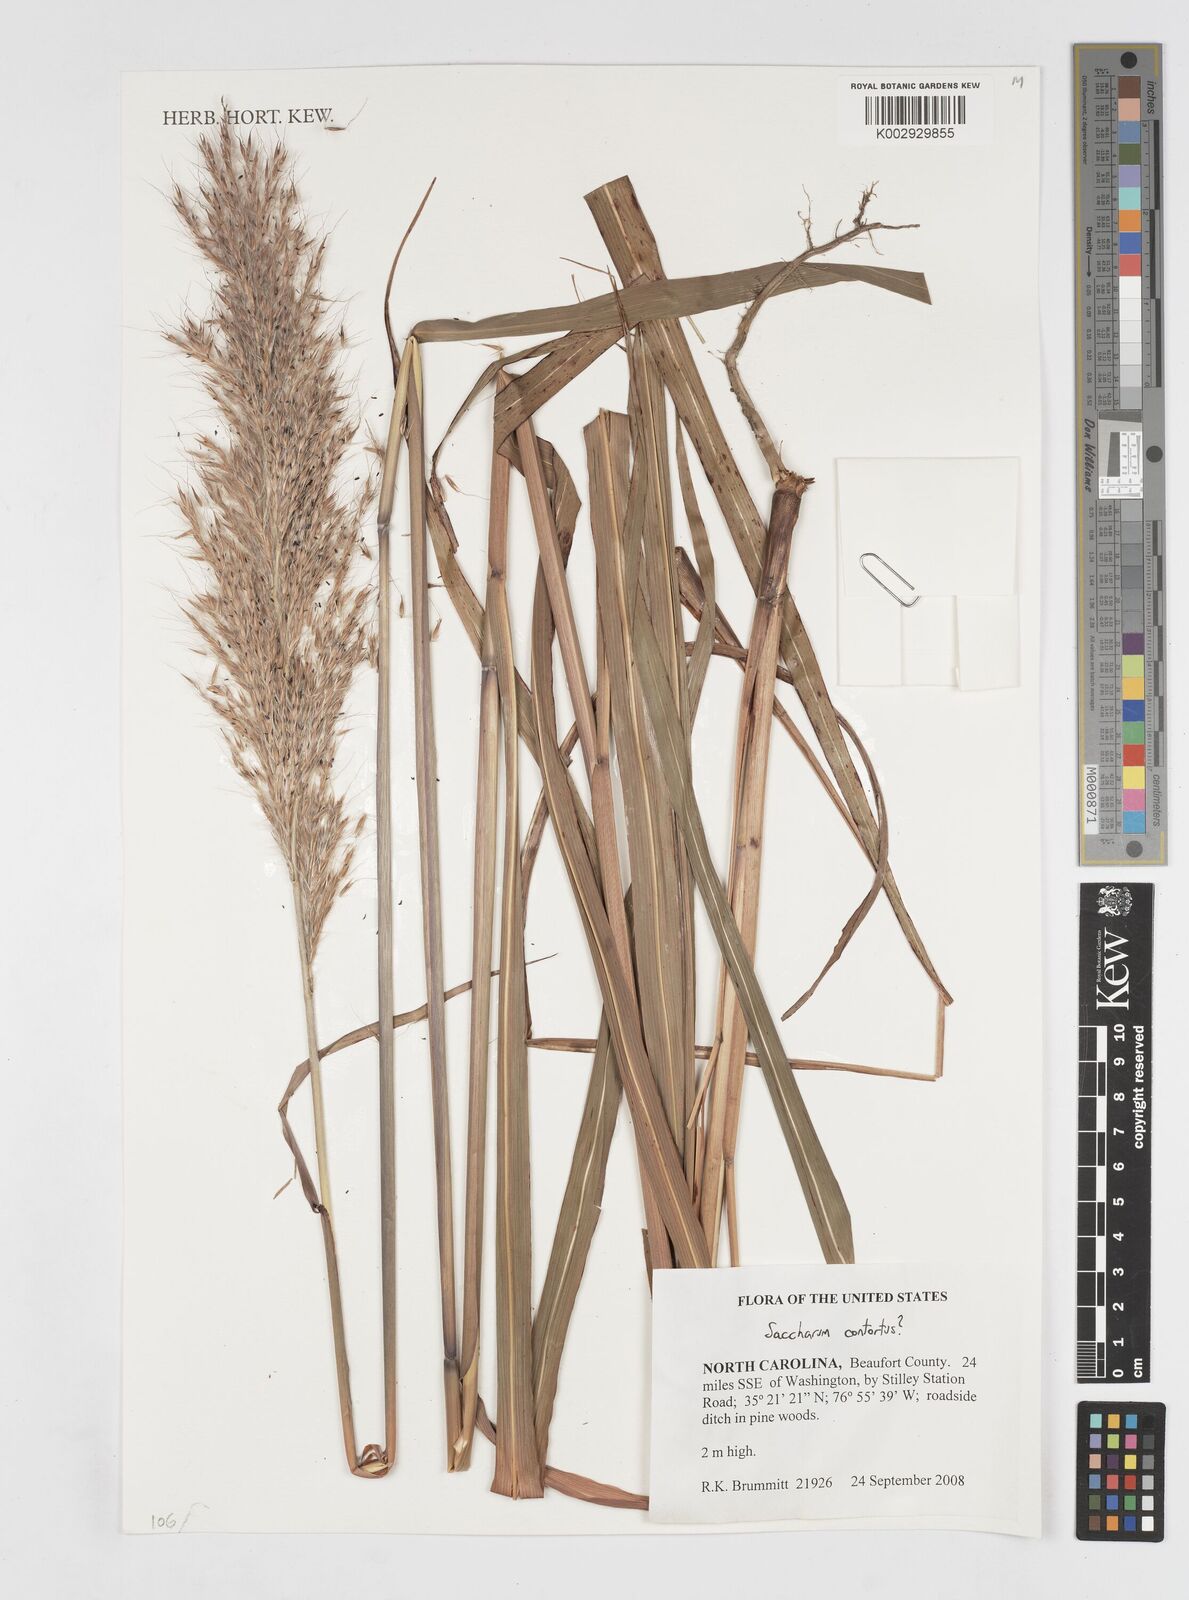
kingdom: Plantae
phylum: Tracheophyta
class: Liliopsida
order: Poales
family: Poaceae
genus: Erianthus
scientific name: Erianthus contortus
